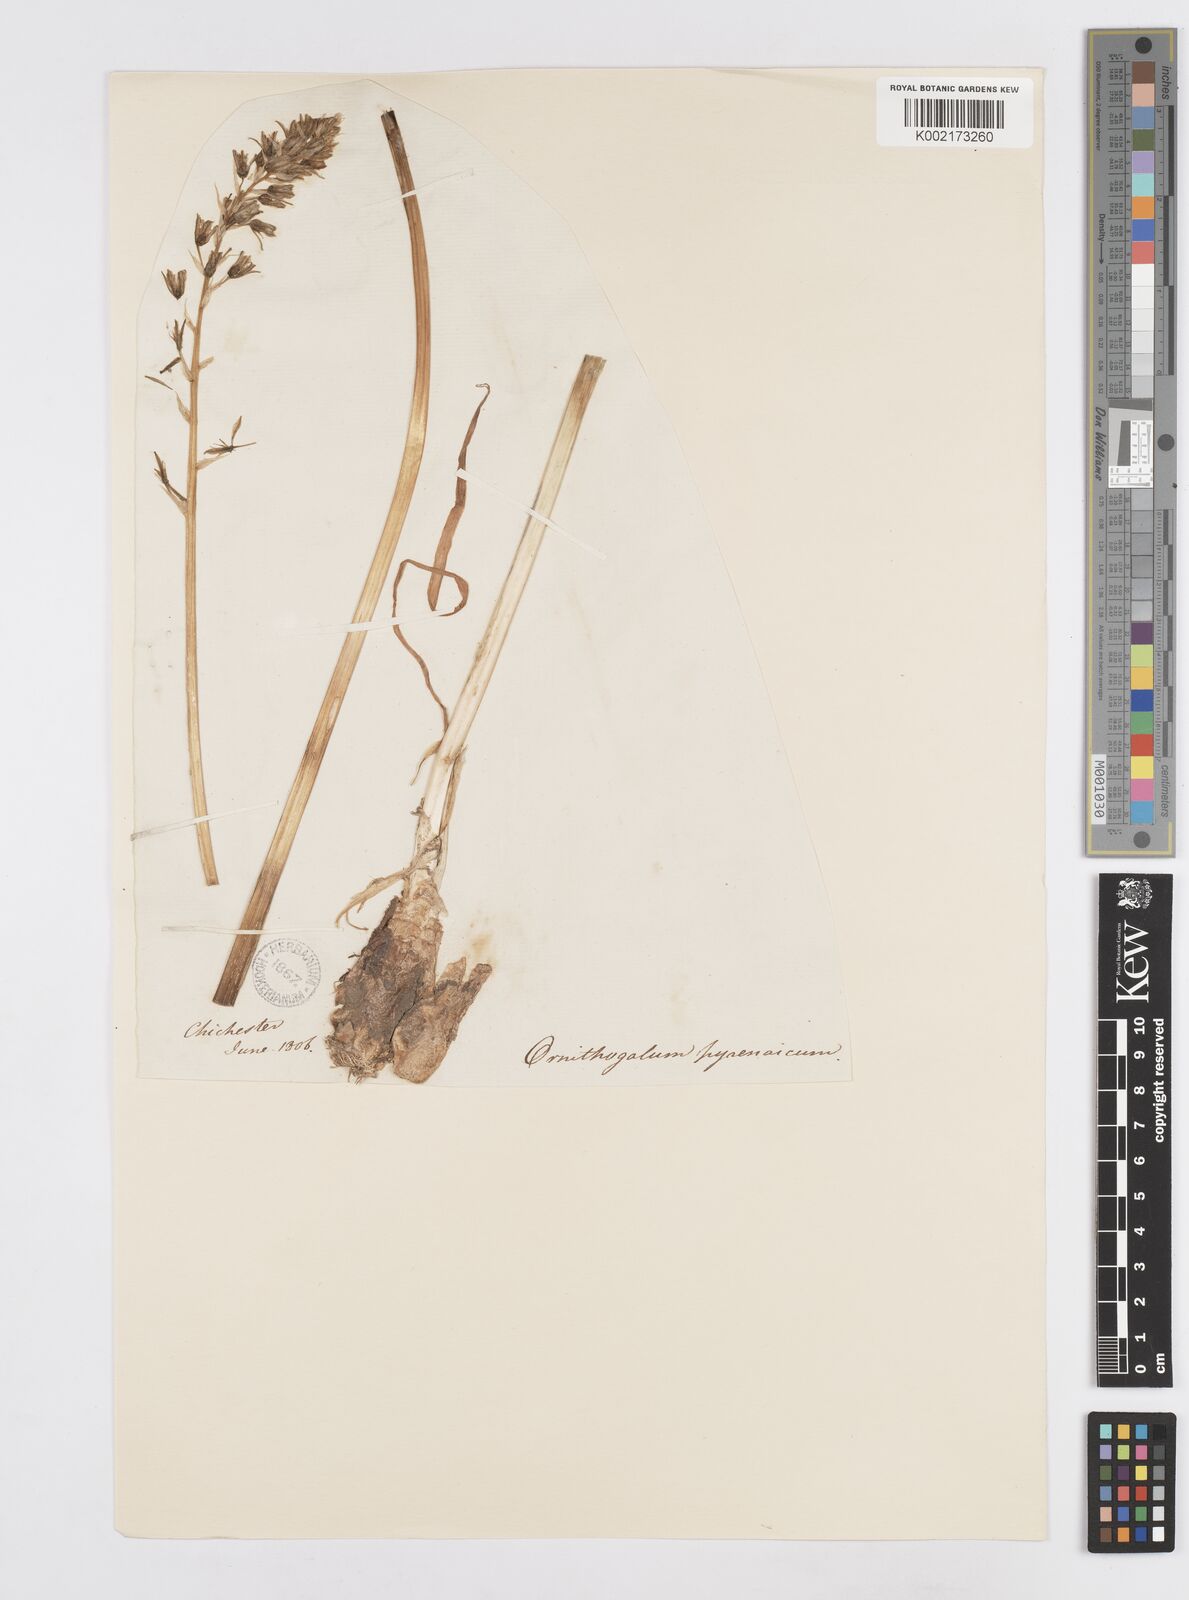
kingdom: Plantae
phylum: Tracheophyta
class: Liliopsida
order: Asparagales
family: Asparagaceae
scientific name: Asparagaceae
